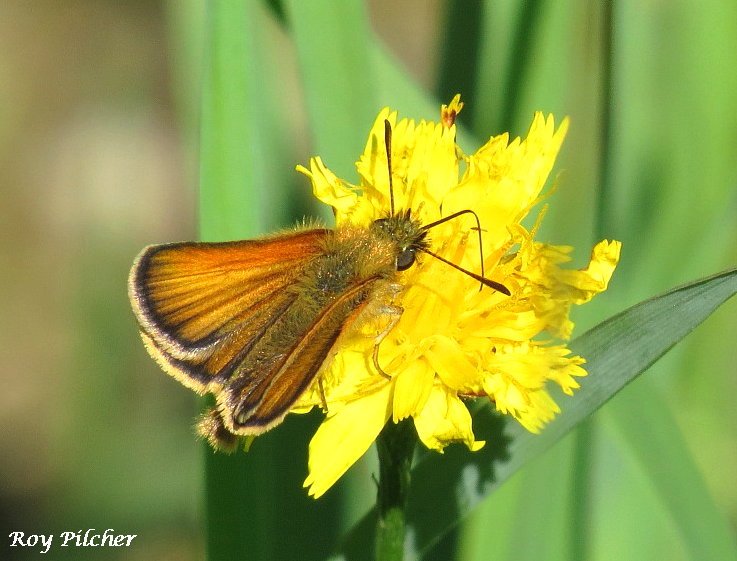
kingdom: Animalia
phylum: Arthropoda
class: Insecta
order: Lepidoptera
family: Hesperiidae
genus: Thymelicus
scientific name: Thymelicus lineola
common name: European Skipper
